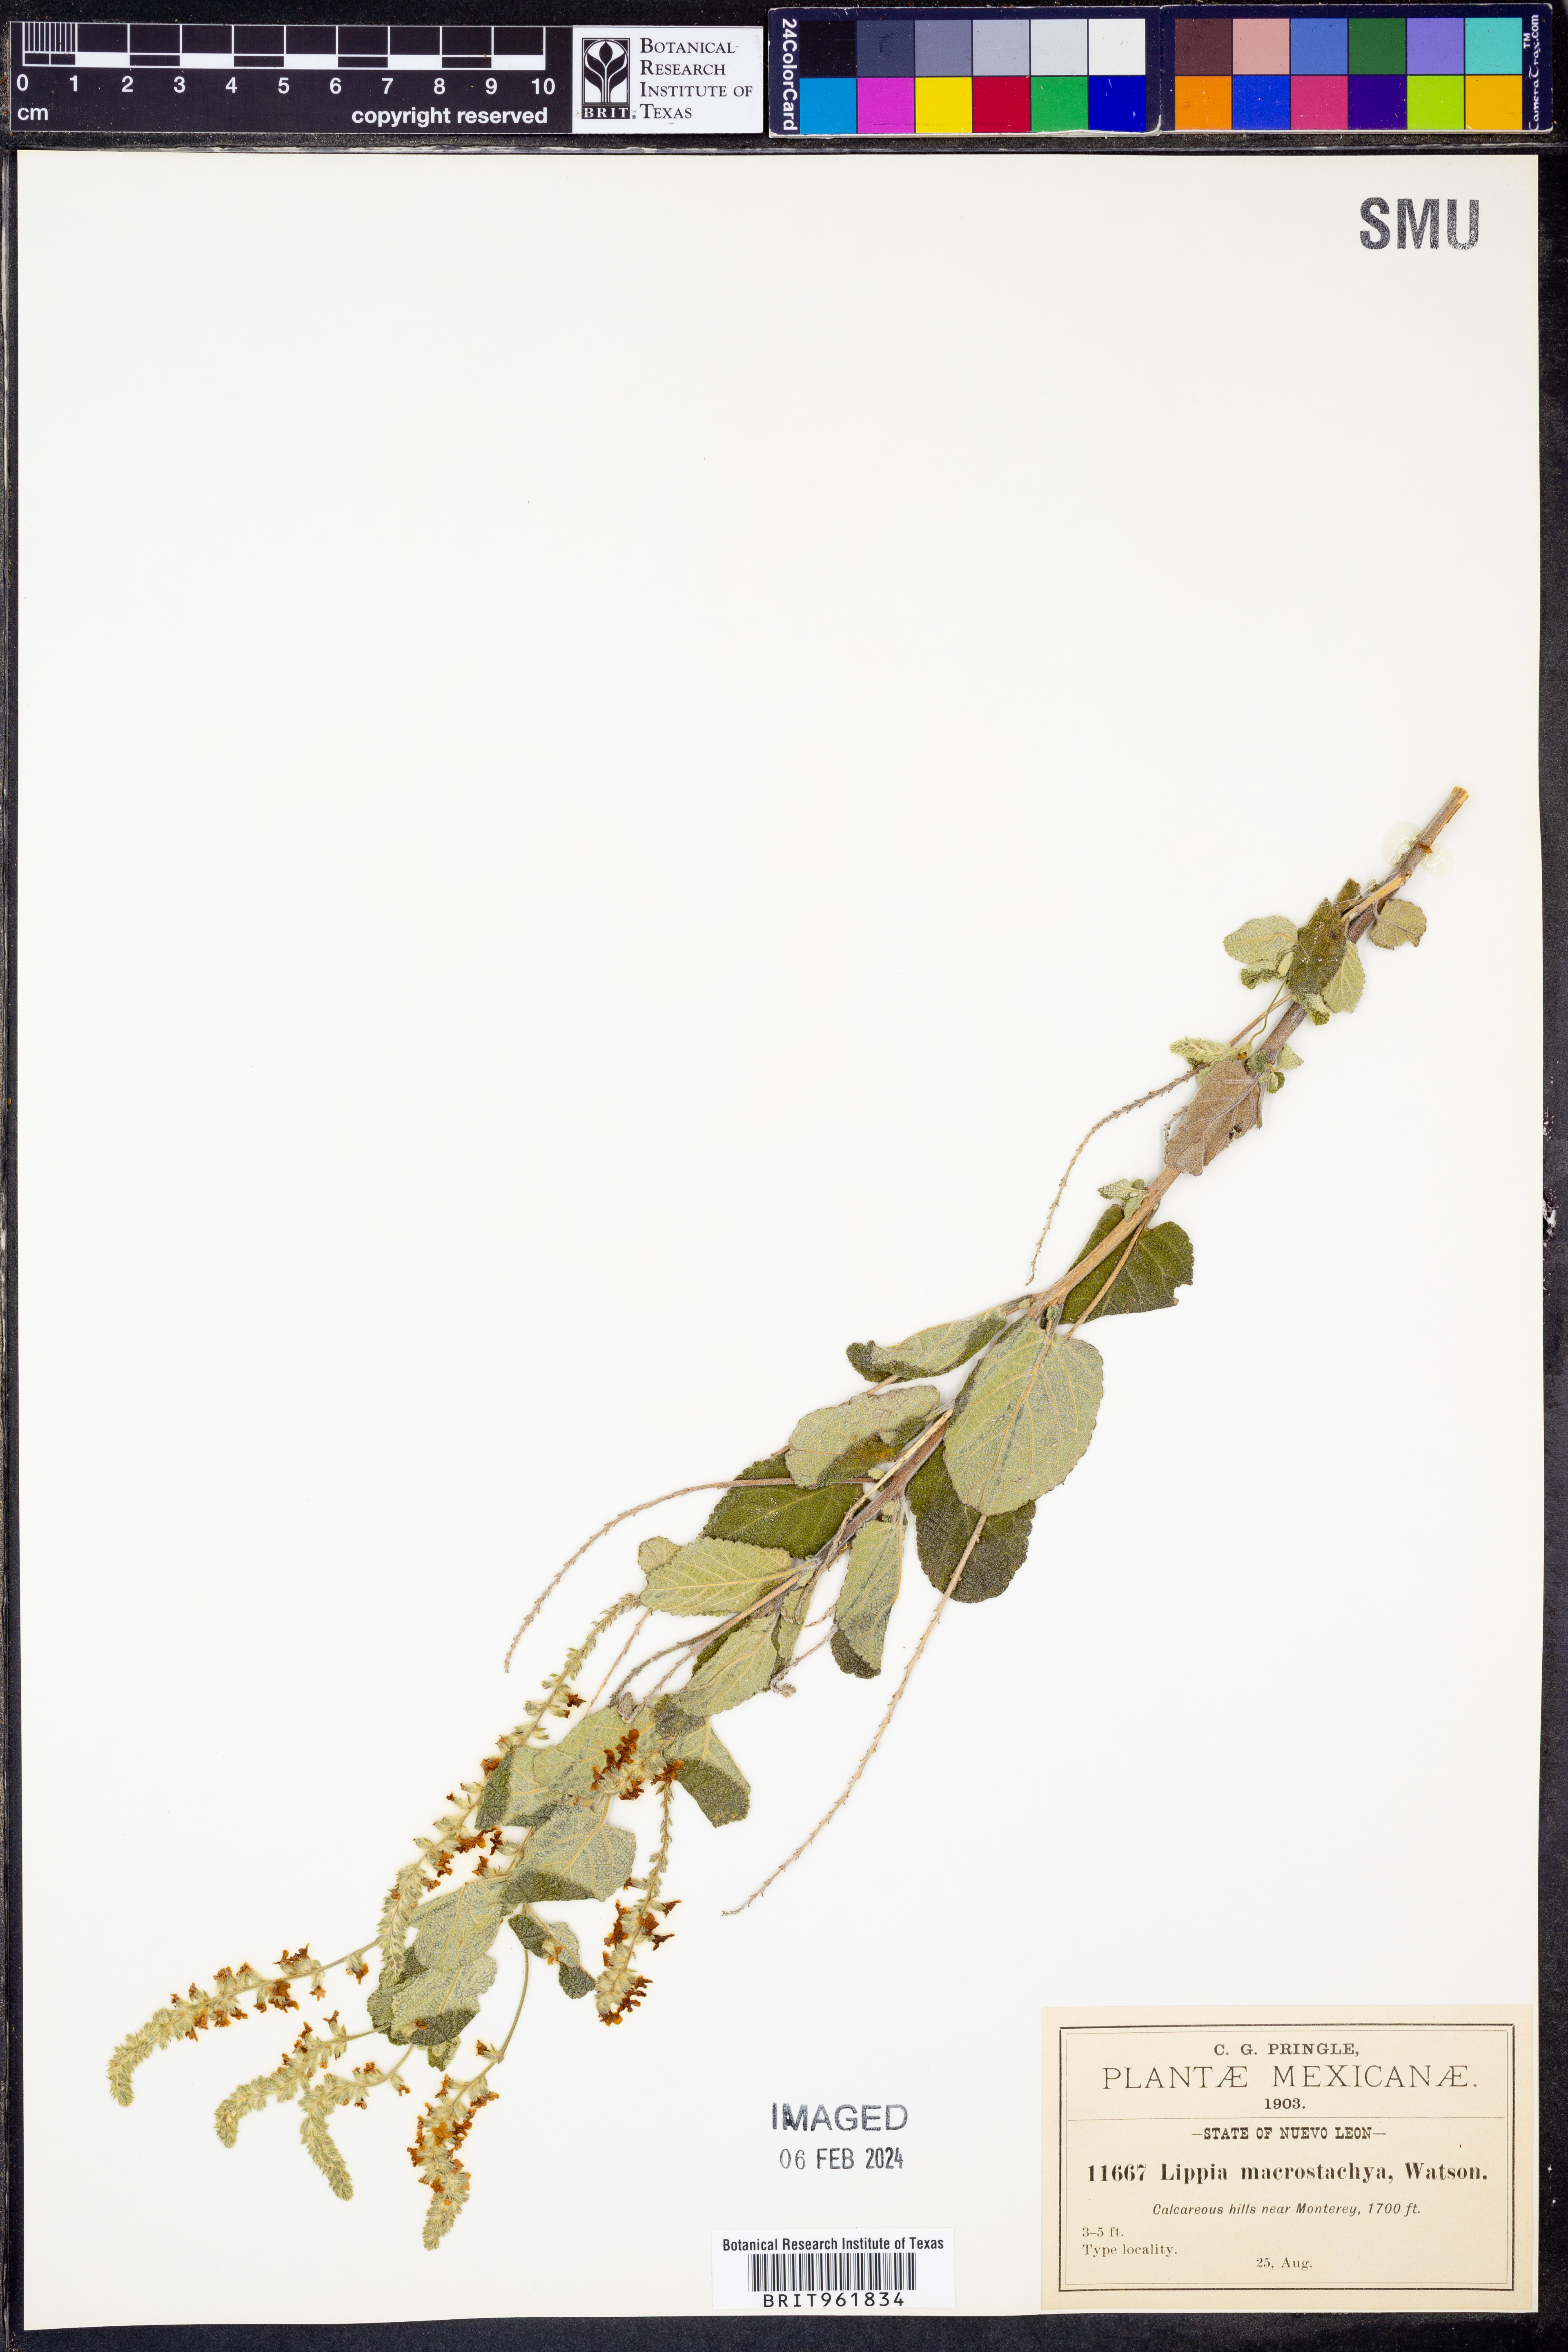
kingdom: Plantae
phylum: Tracheophyta
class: Magnoliopsida
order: Lamiales
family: Verbenaceae
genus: Aloysia
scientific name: Aloysia
